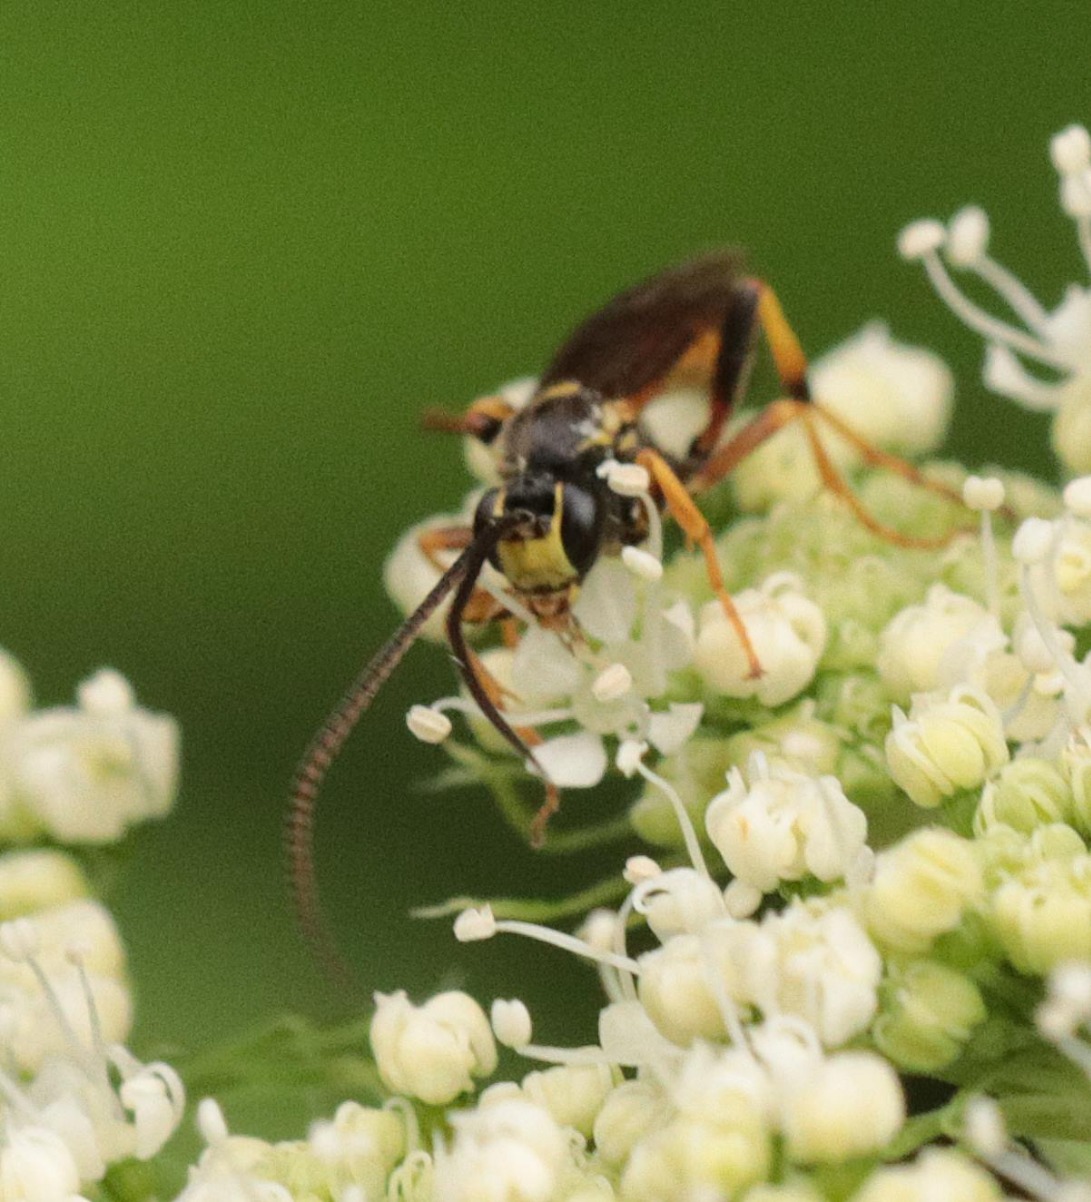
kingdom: Animalia
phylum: Arthropoda
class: Insecta
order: Hymenoptera
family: Ichneumonidae
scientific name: Ichneumonidae
